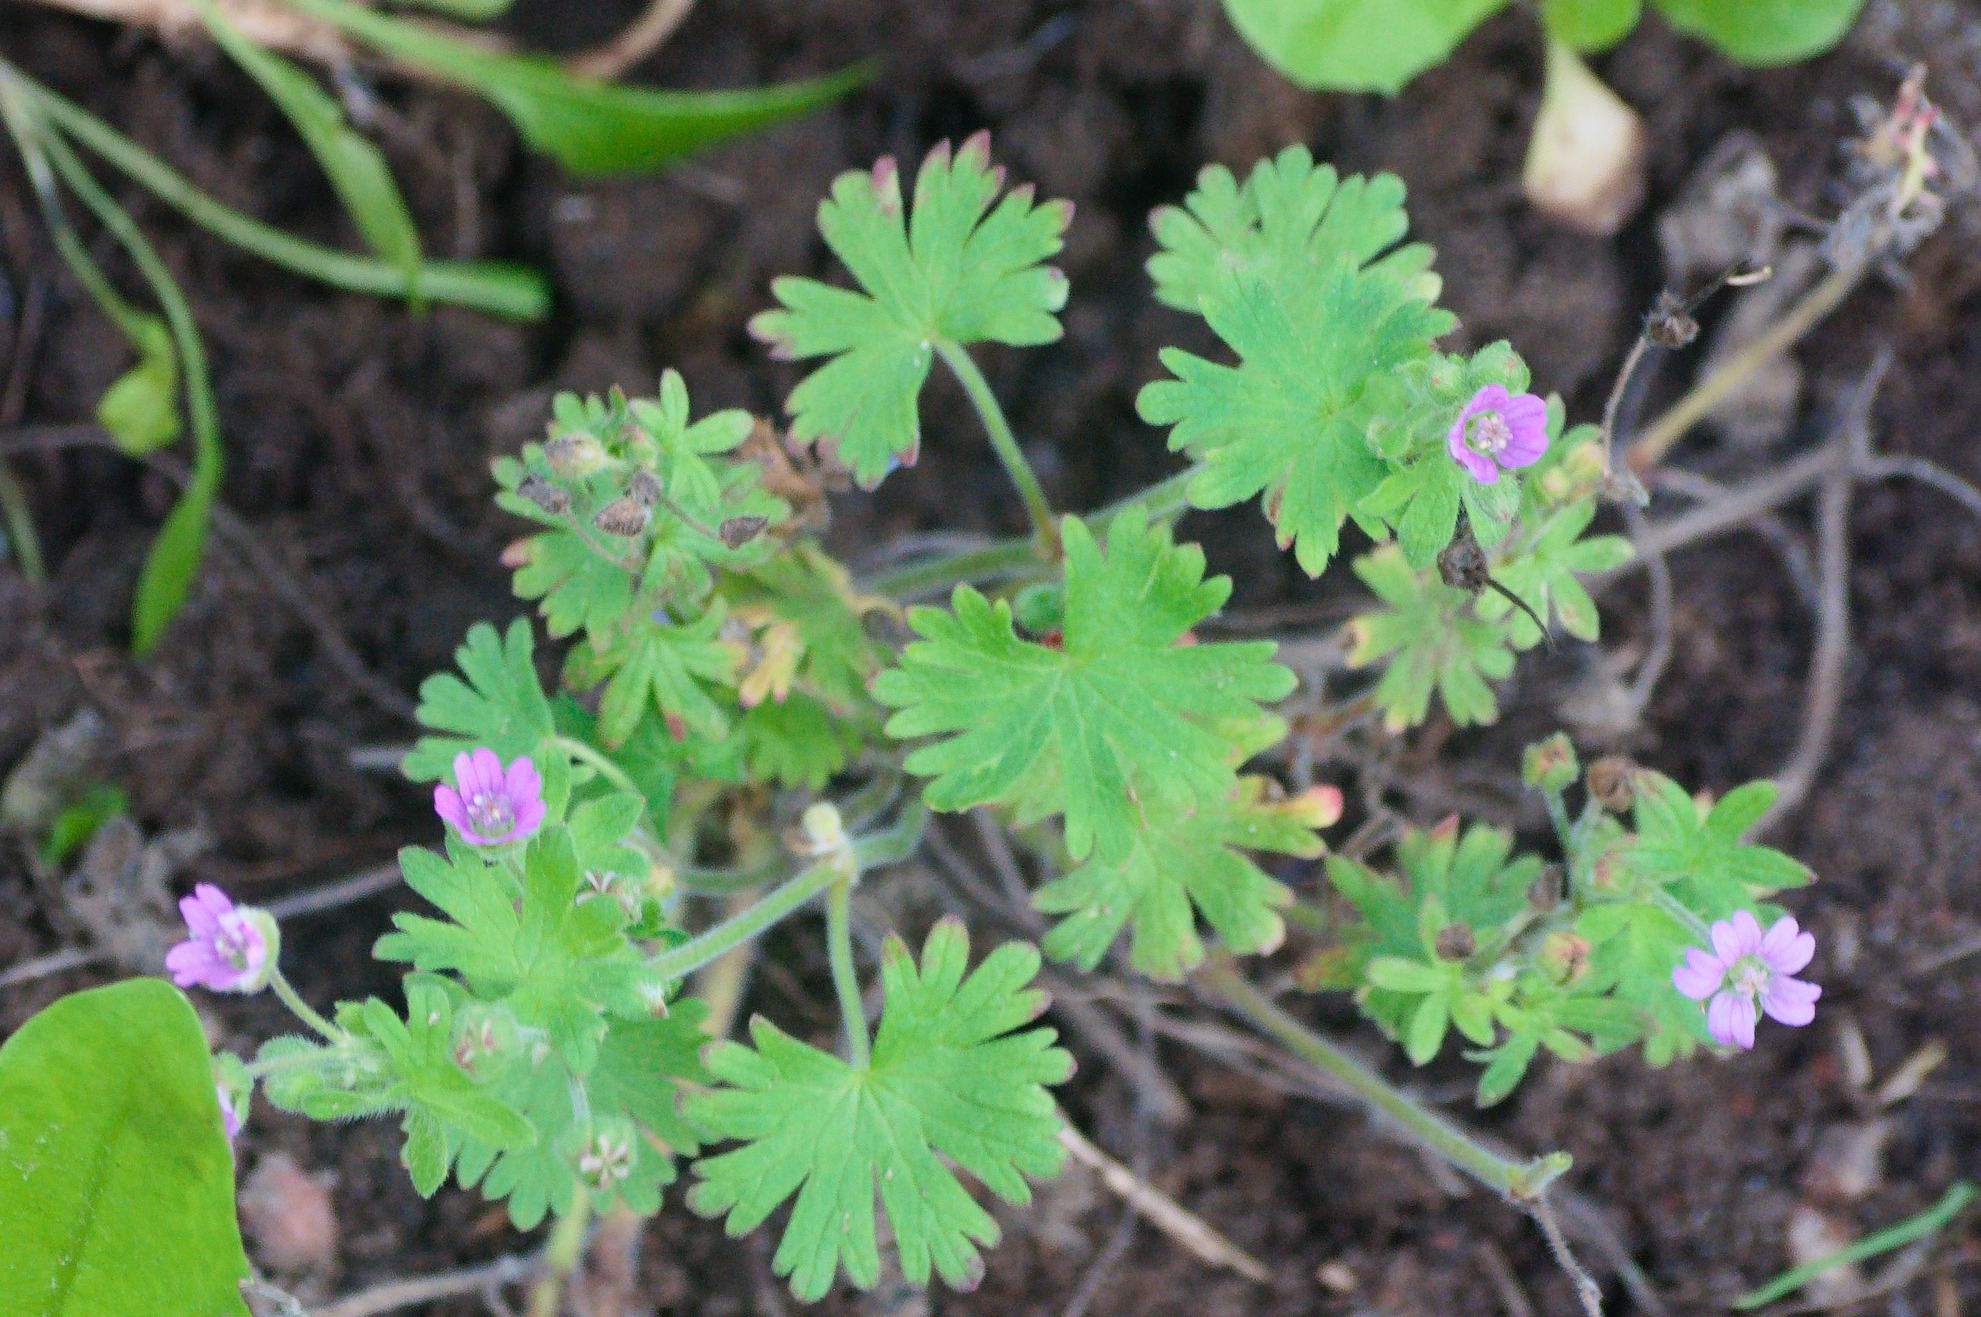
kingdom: Plantae
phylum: Tracheophyta
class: Magnoliopsida
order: Geraniales
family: Geraniaceae
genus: Geranium
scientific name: Geranium molle
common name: Blød storkenæb
